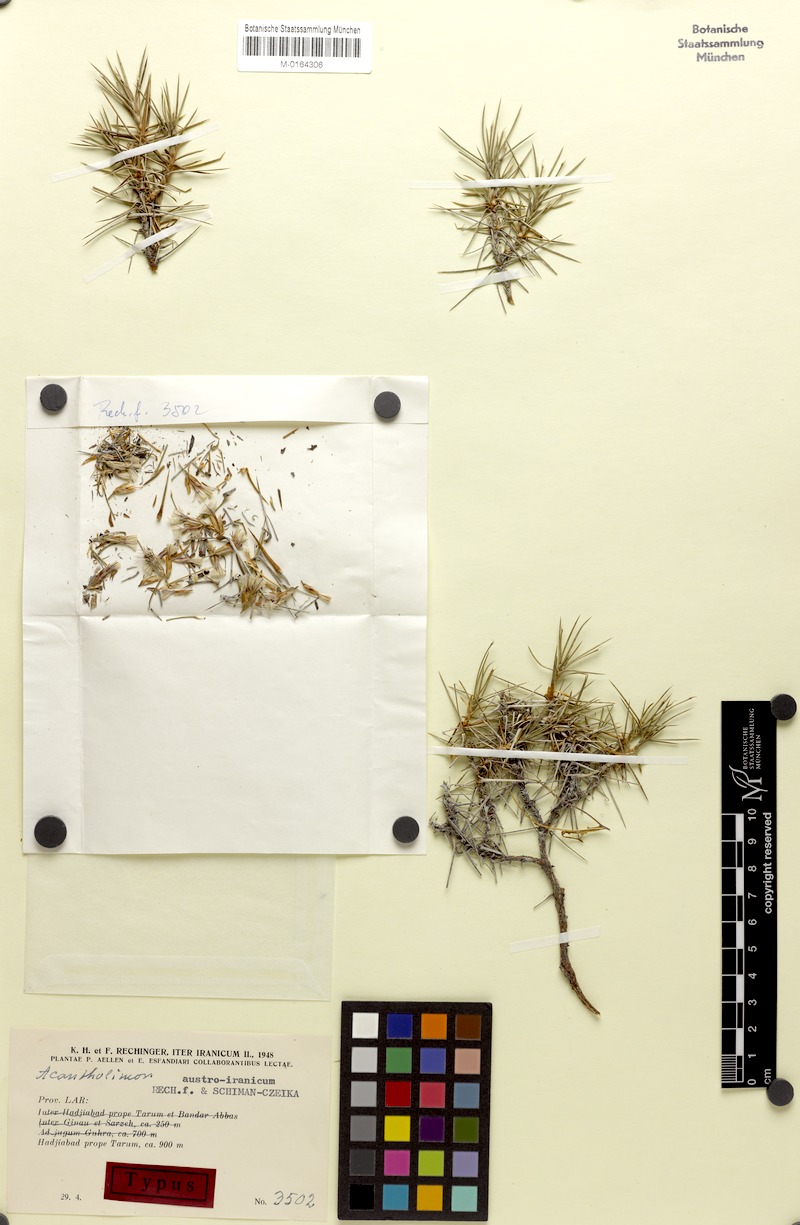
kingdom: Plantae
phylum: Tracheophyta
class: Magnoliopsida
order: Caryophyllales
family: Plumbaginaceae
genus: Acantholimon
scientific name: Acantholimon austroiranicum
